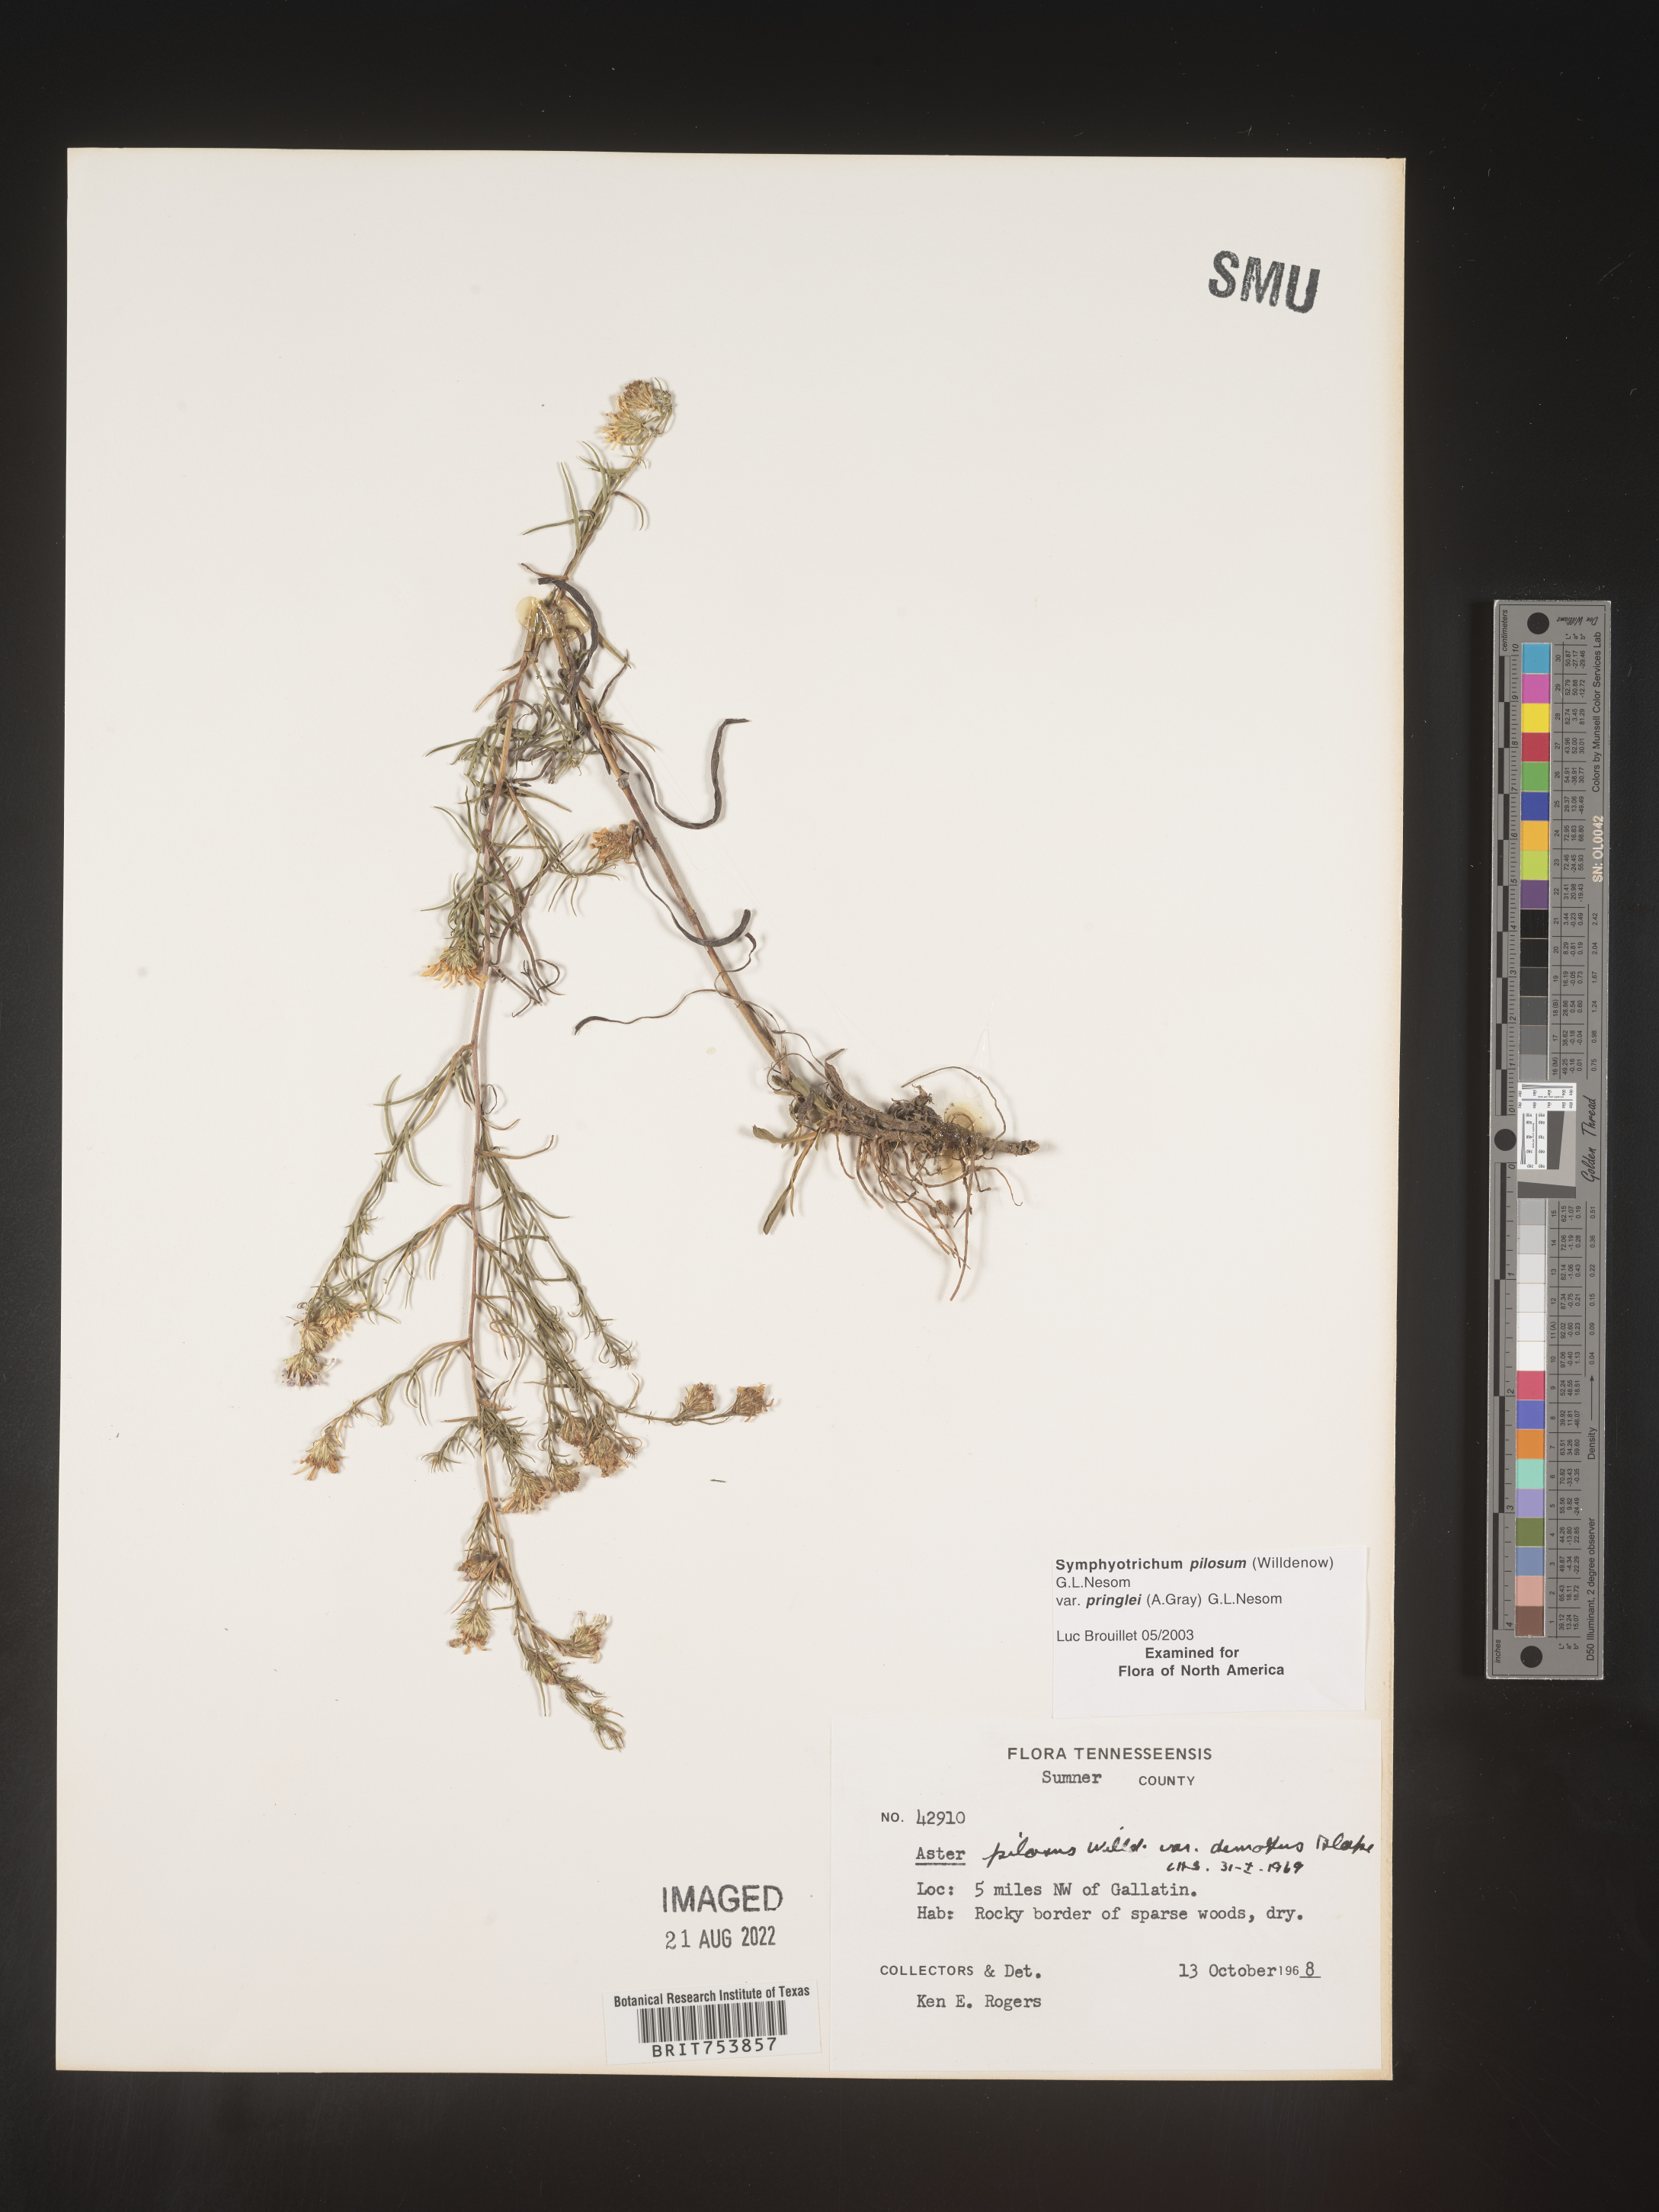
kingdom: Plantae
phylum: Tracheophyta
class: Magnoliopsida
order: Asterales
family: Asteraceae
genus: Symphyotrichum
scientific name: Symphyotrichum pilosum
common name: Awl aster
